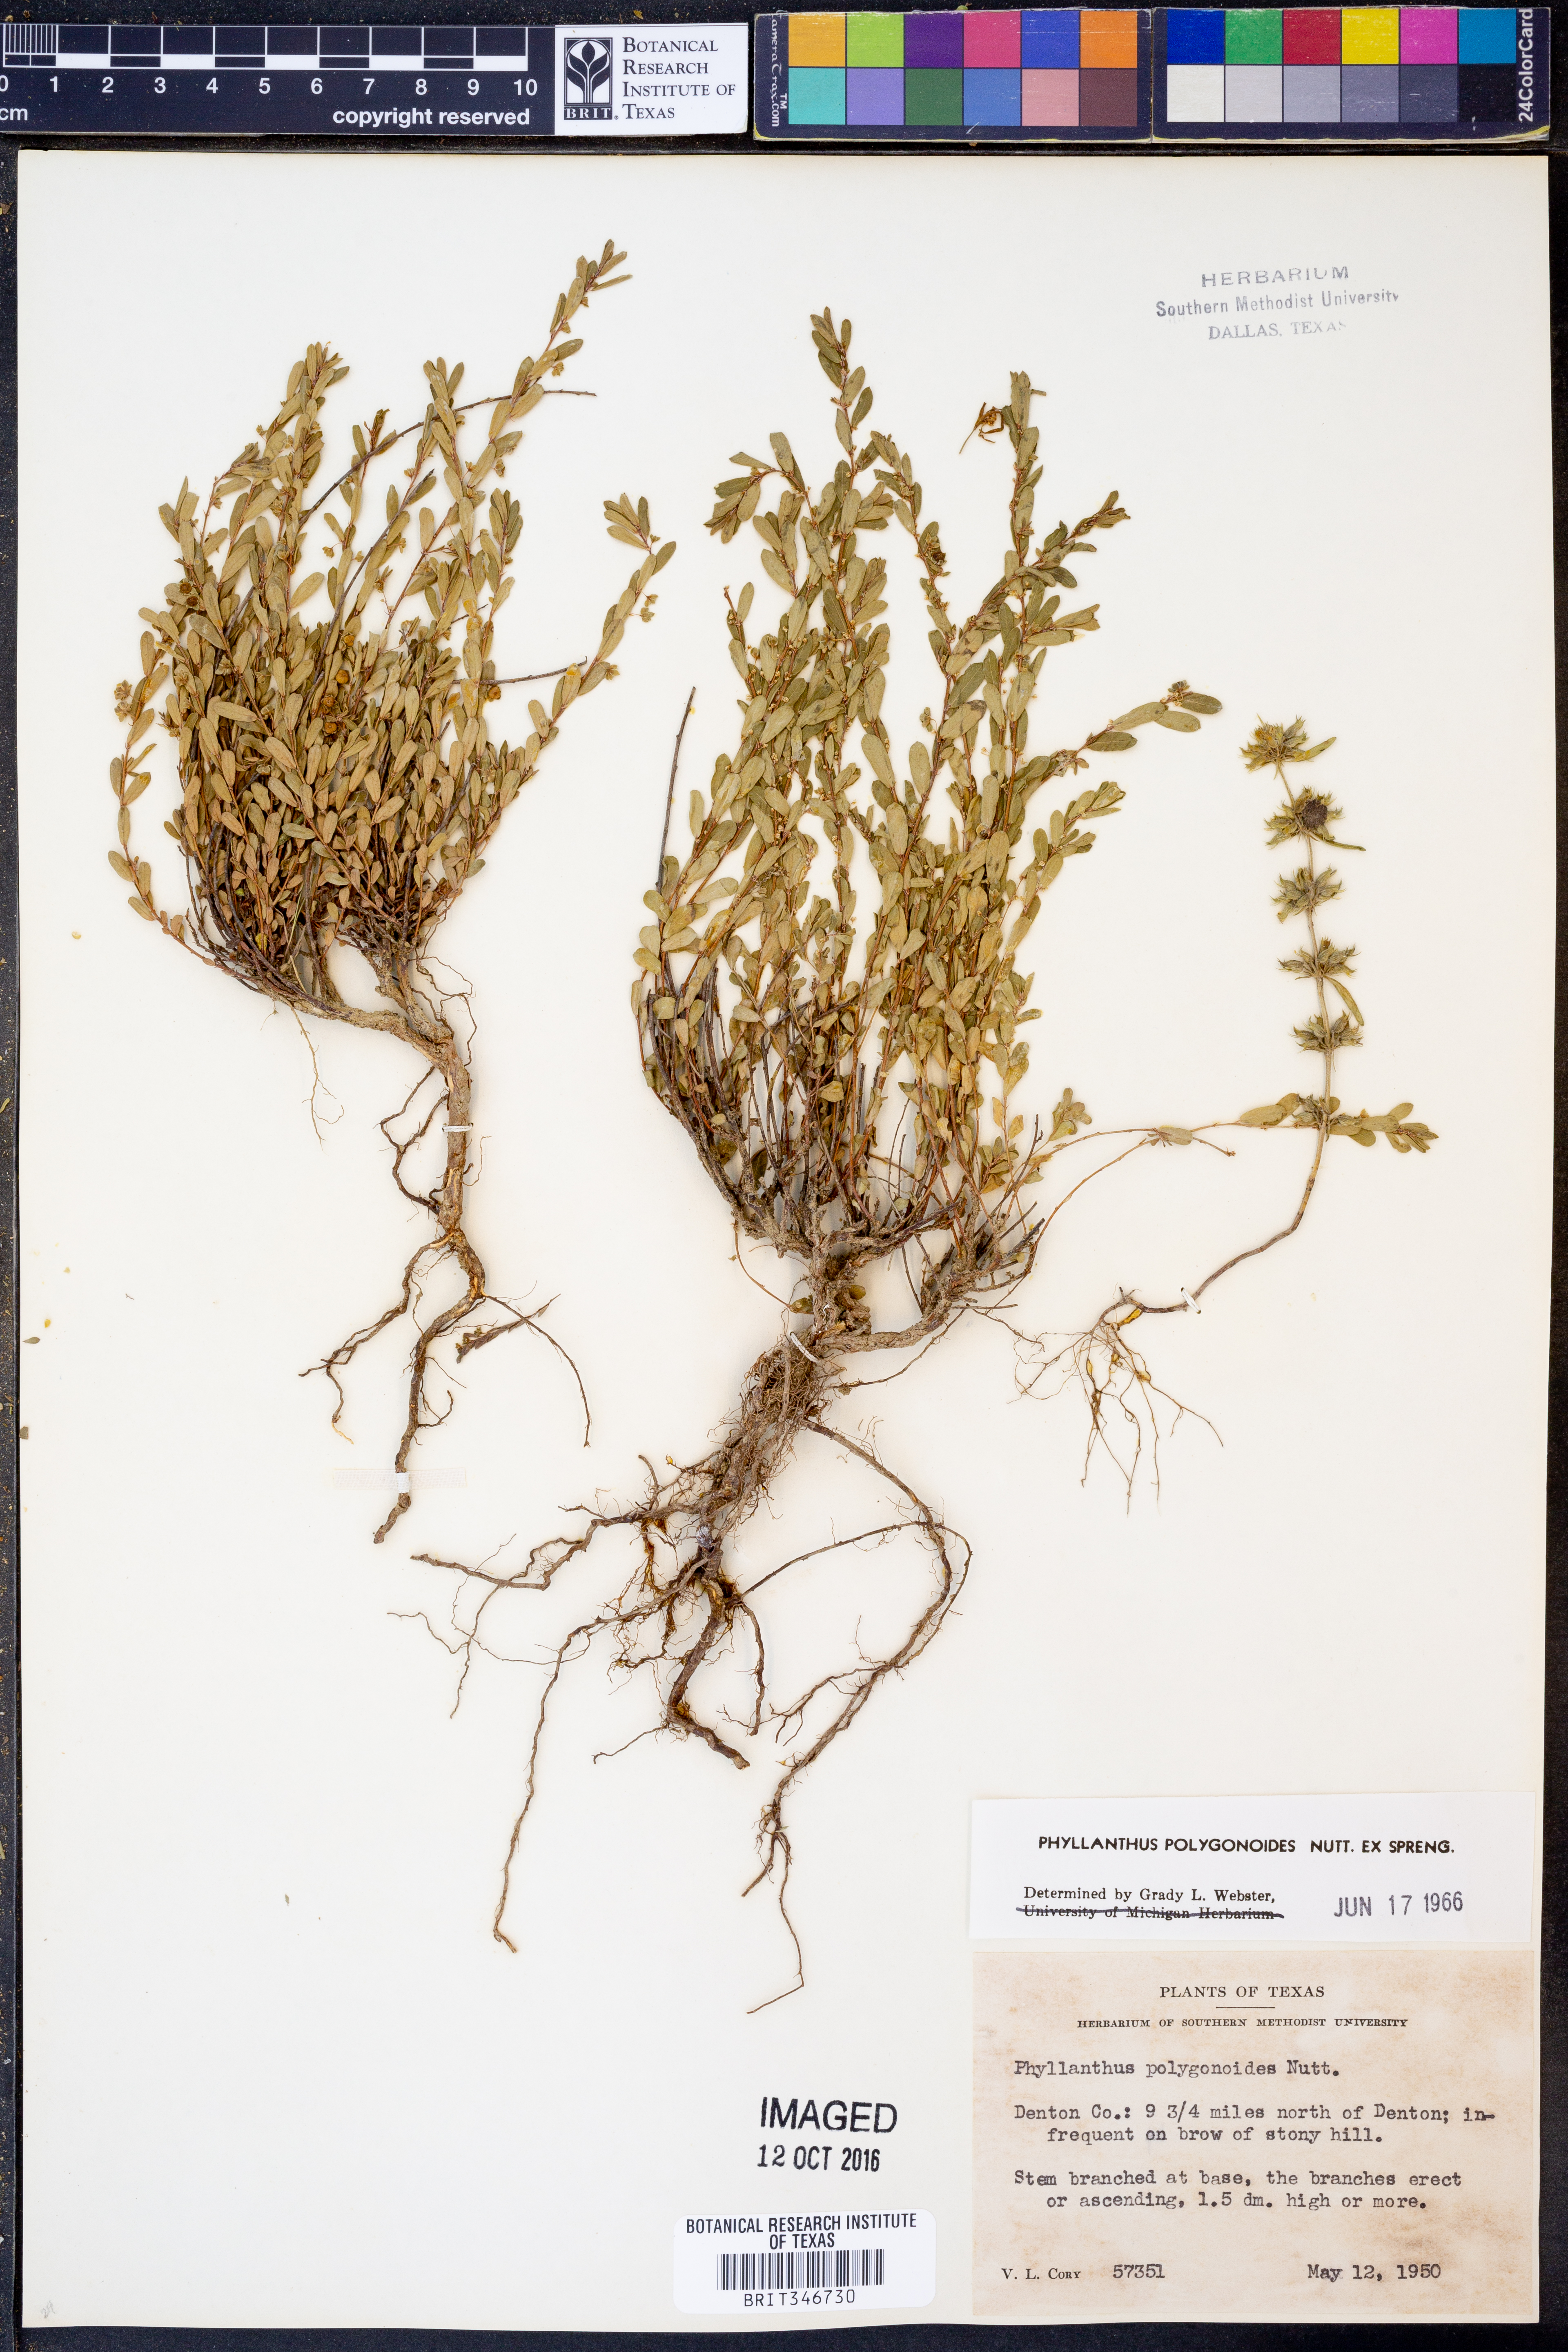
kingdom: Plantae
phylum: Tracheophyta
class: Magnoliopsida
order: Malpighiales
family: Phyllanthaceae
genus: Phyllanthus
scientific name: Phyllanthus polygonoides
